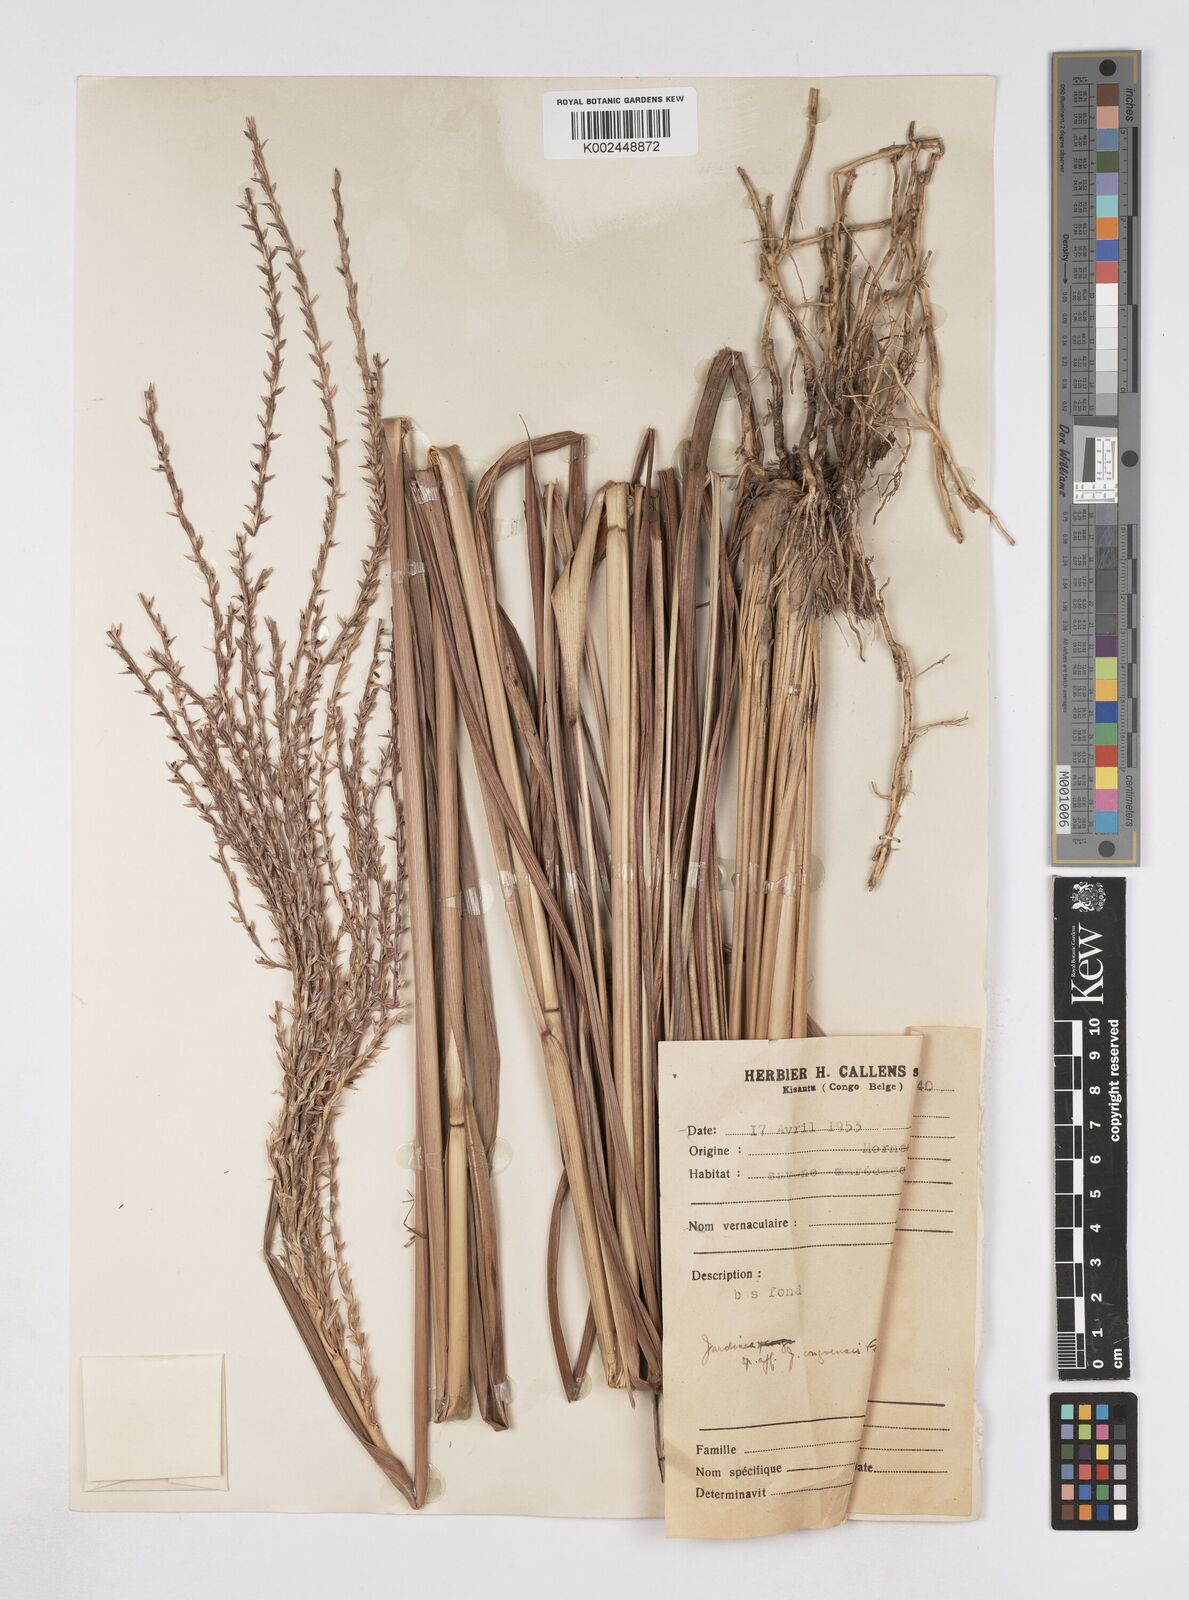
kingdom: Plantae
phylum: Tracheophyta
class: Liliopsida
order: Poales
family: Poaceae
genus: Phacelurus
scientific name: Phacelurus gabonensis
